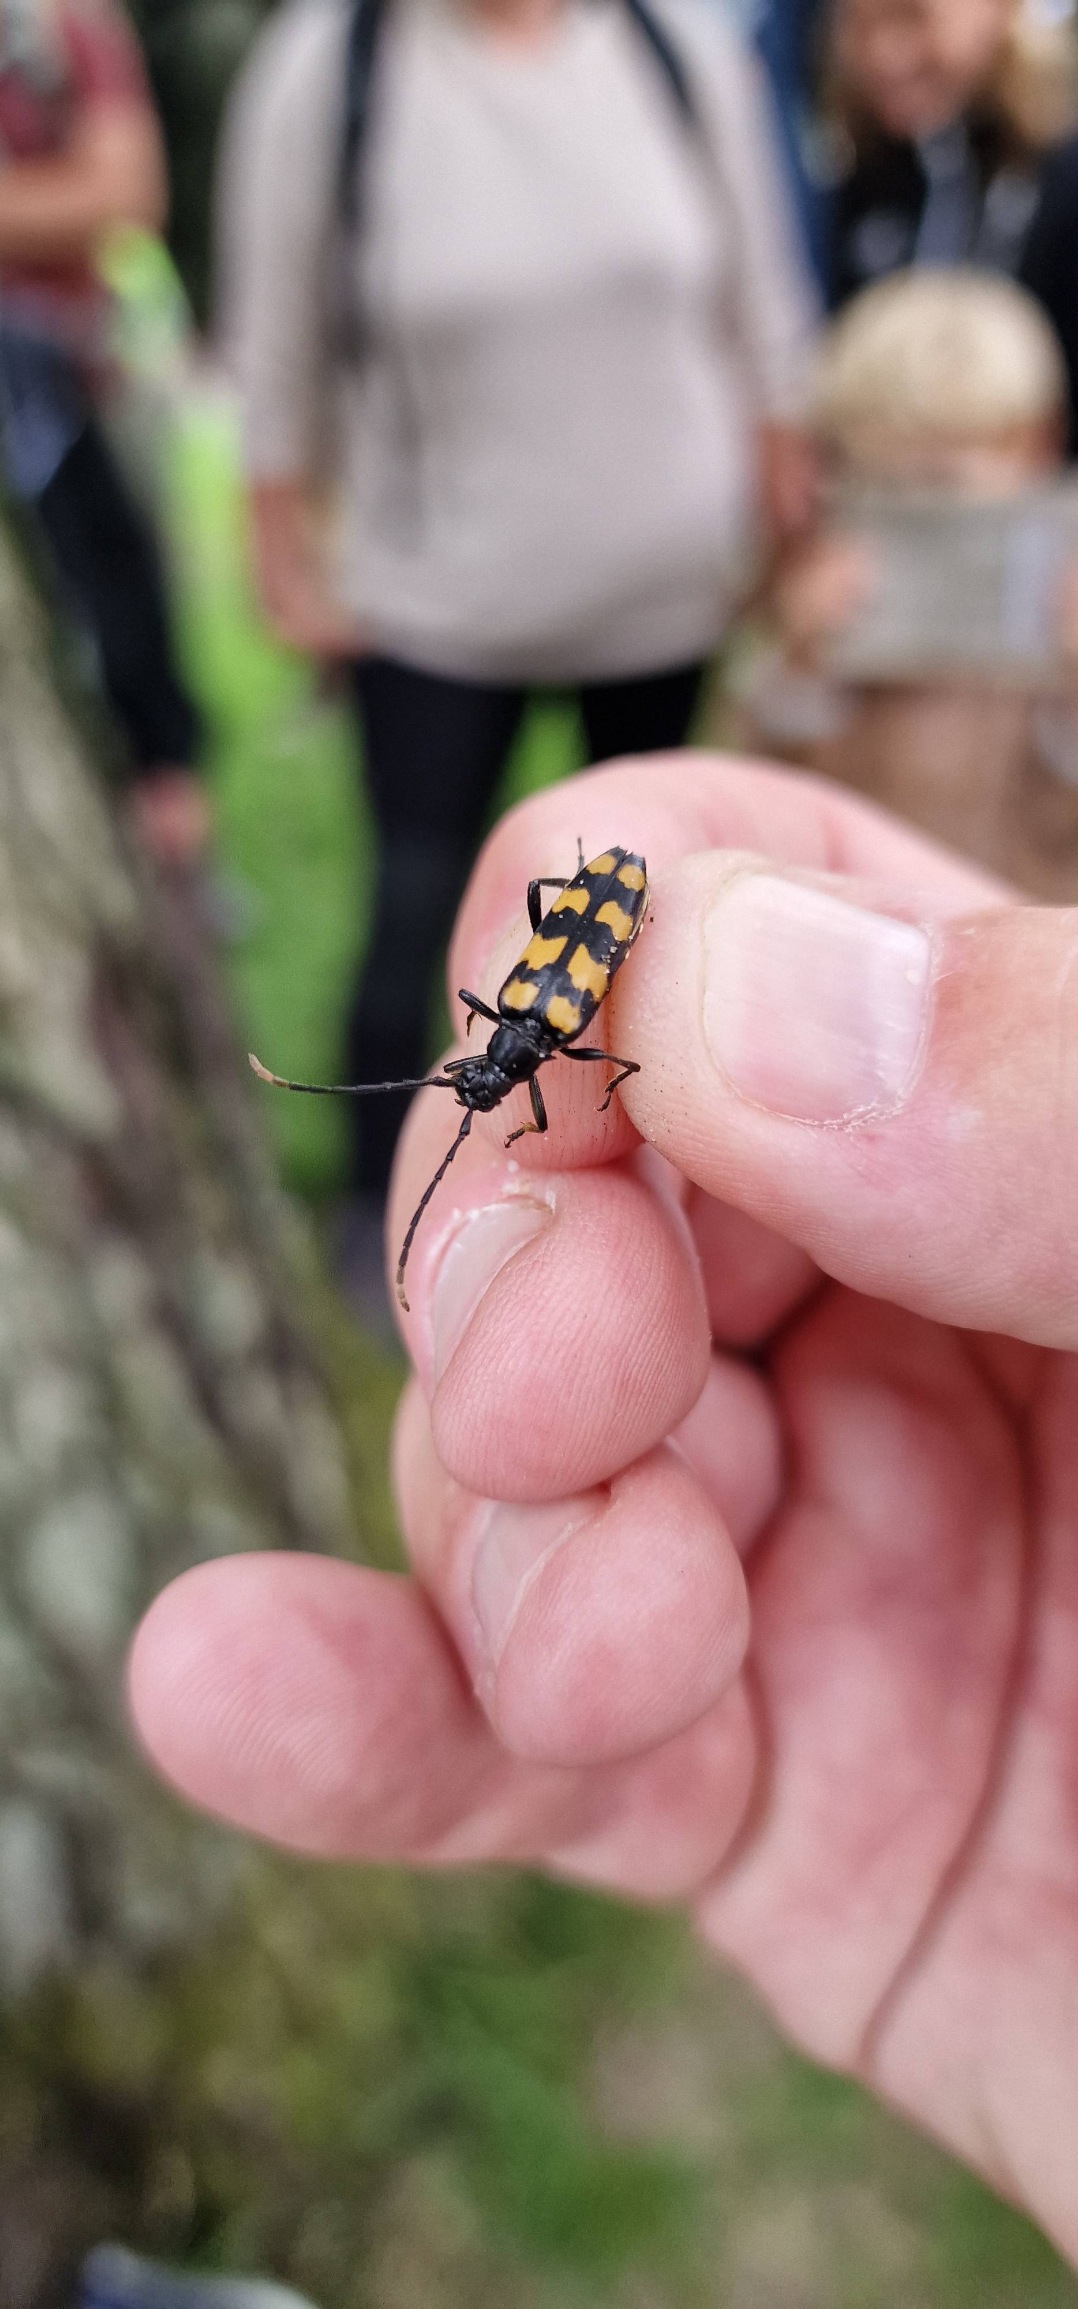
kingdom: Animalia
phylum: Arthropoda
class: Insecta
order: Coleoptera
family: Cerambycidae
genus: Leptura
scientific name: Leptura quadrifasciata
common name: Firebåndet blomsterbuk
